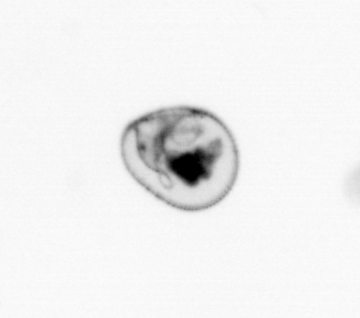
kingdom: Chromista
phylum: Myzozoa
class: Dinophyceae
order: Noctilucales
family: Noctilucaceae
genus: Noctiluca
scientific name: Noctiluca scintillans
